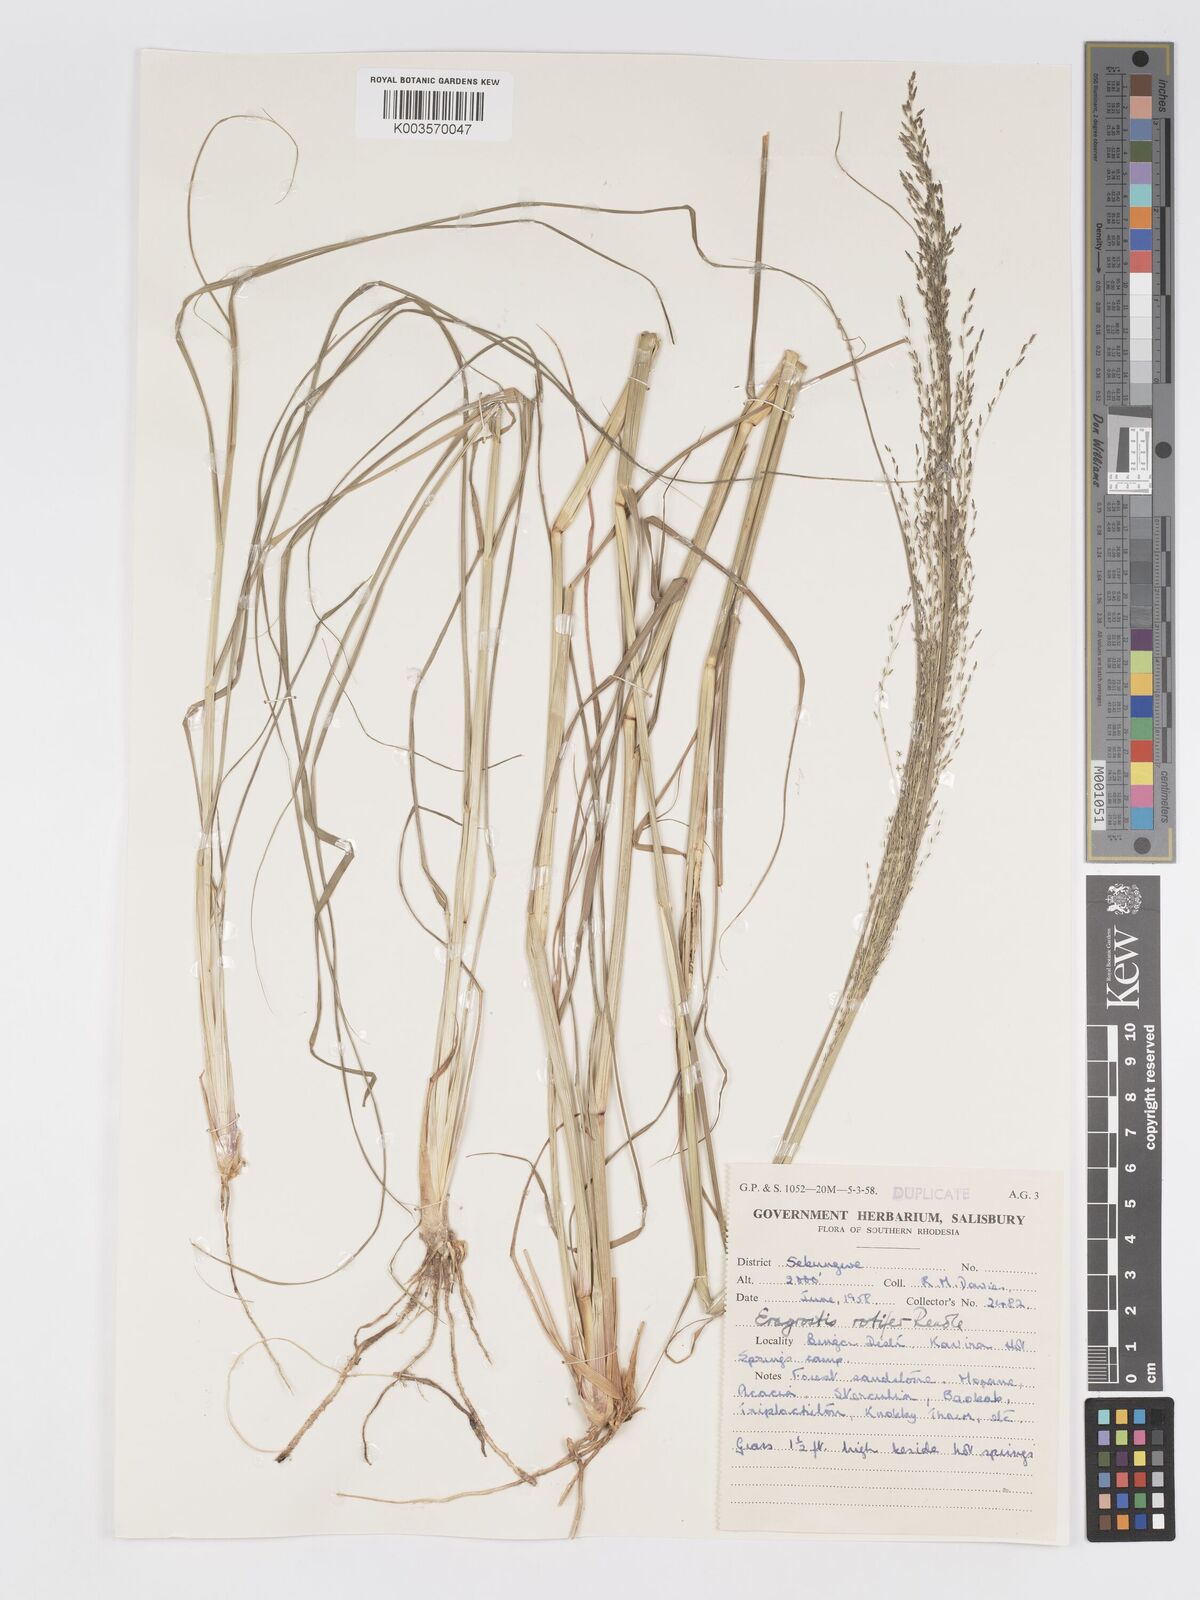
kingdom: Plantae
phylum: Tracheophyta
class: Liliopsida
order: Poales
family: Poaceae
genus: Eragrostis
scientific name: Eragrostis rotifer
